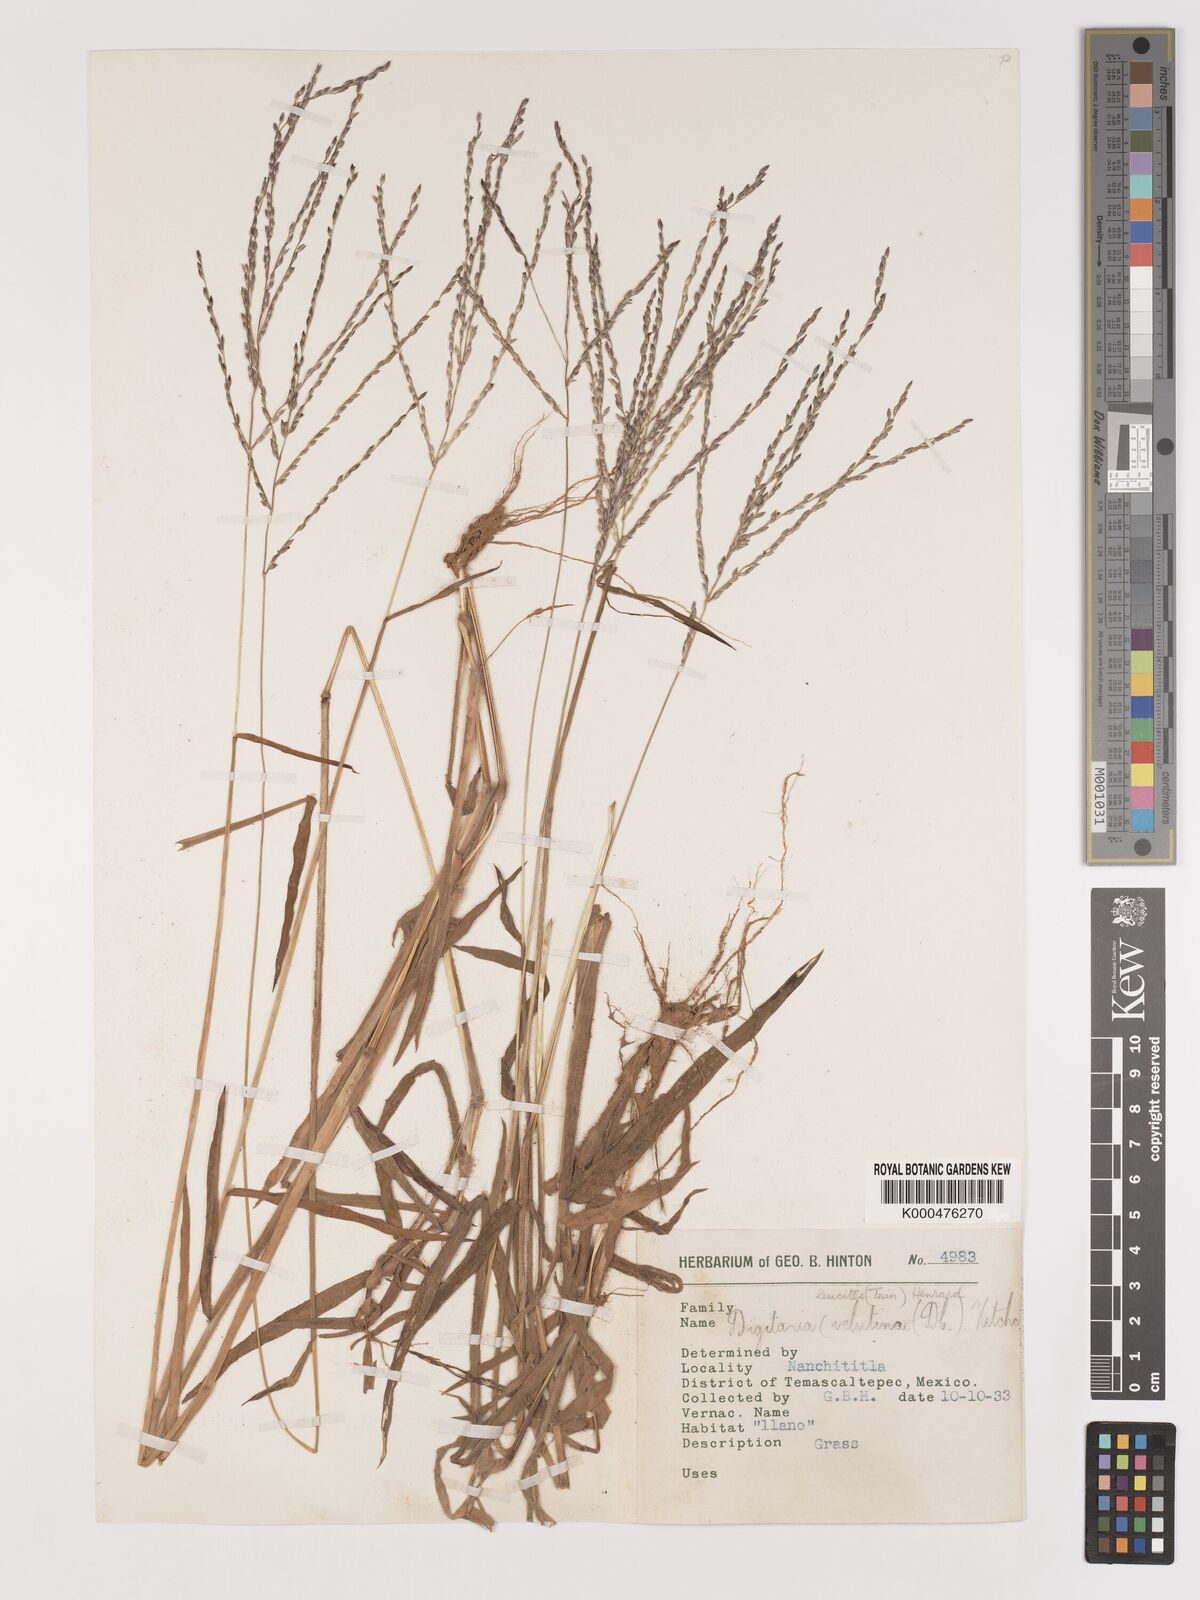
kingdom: Plantae
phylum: Tracheophyta
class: Liliopsida
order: Poales
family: Poaceae
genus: Digitaria
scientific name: Digitaria leucites
